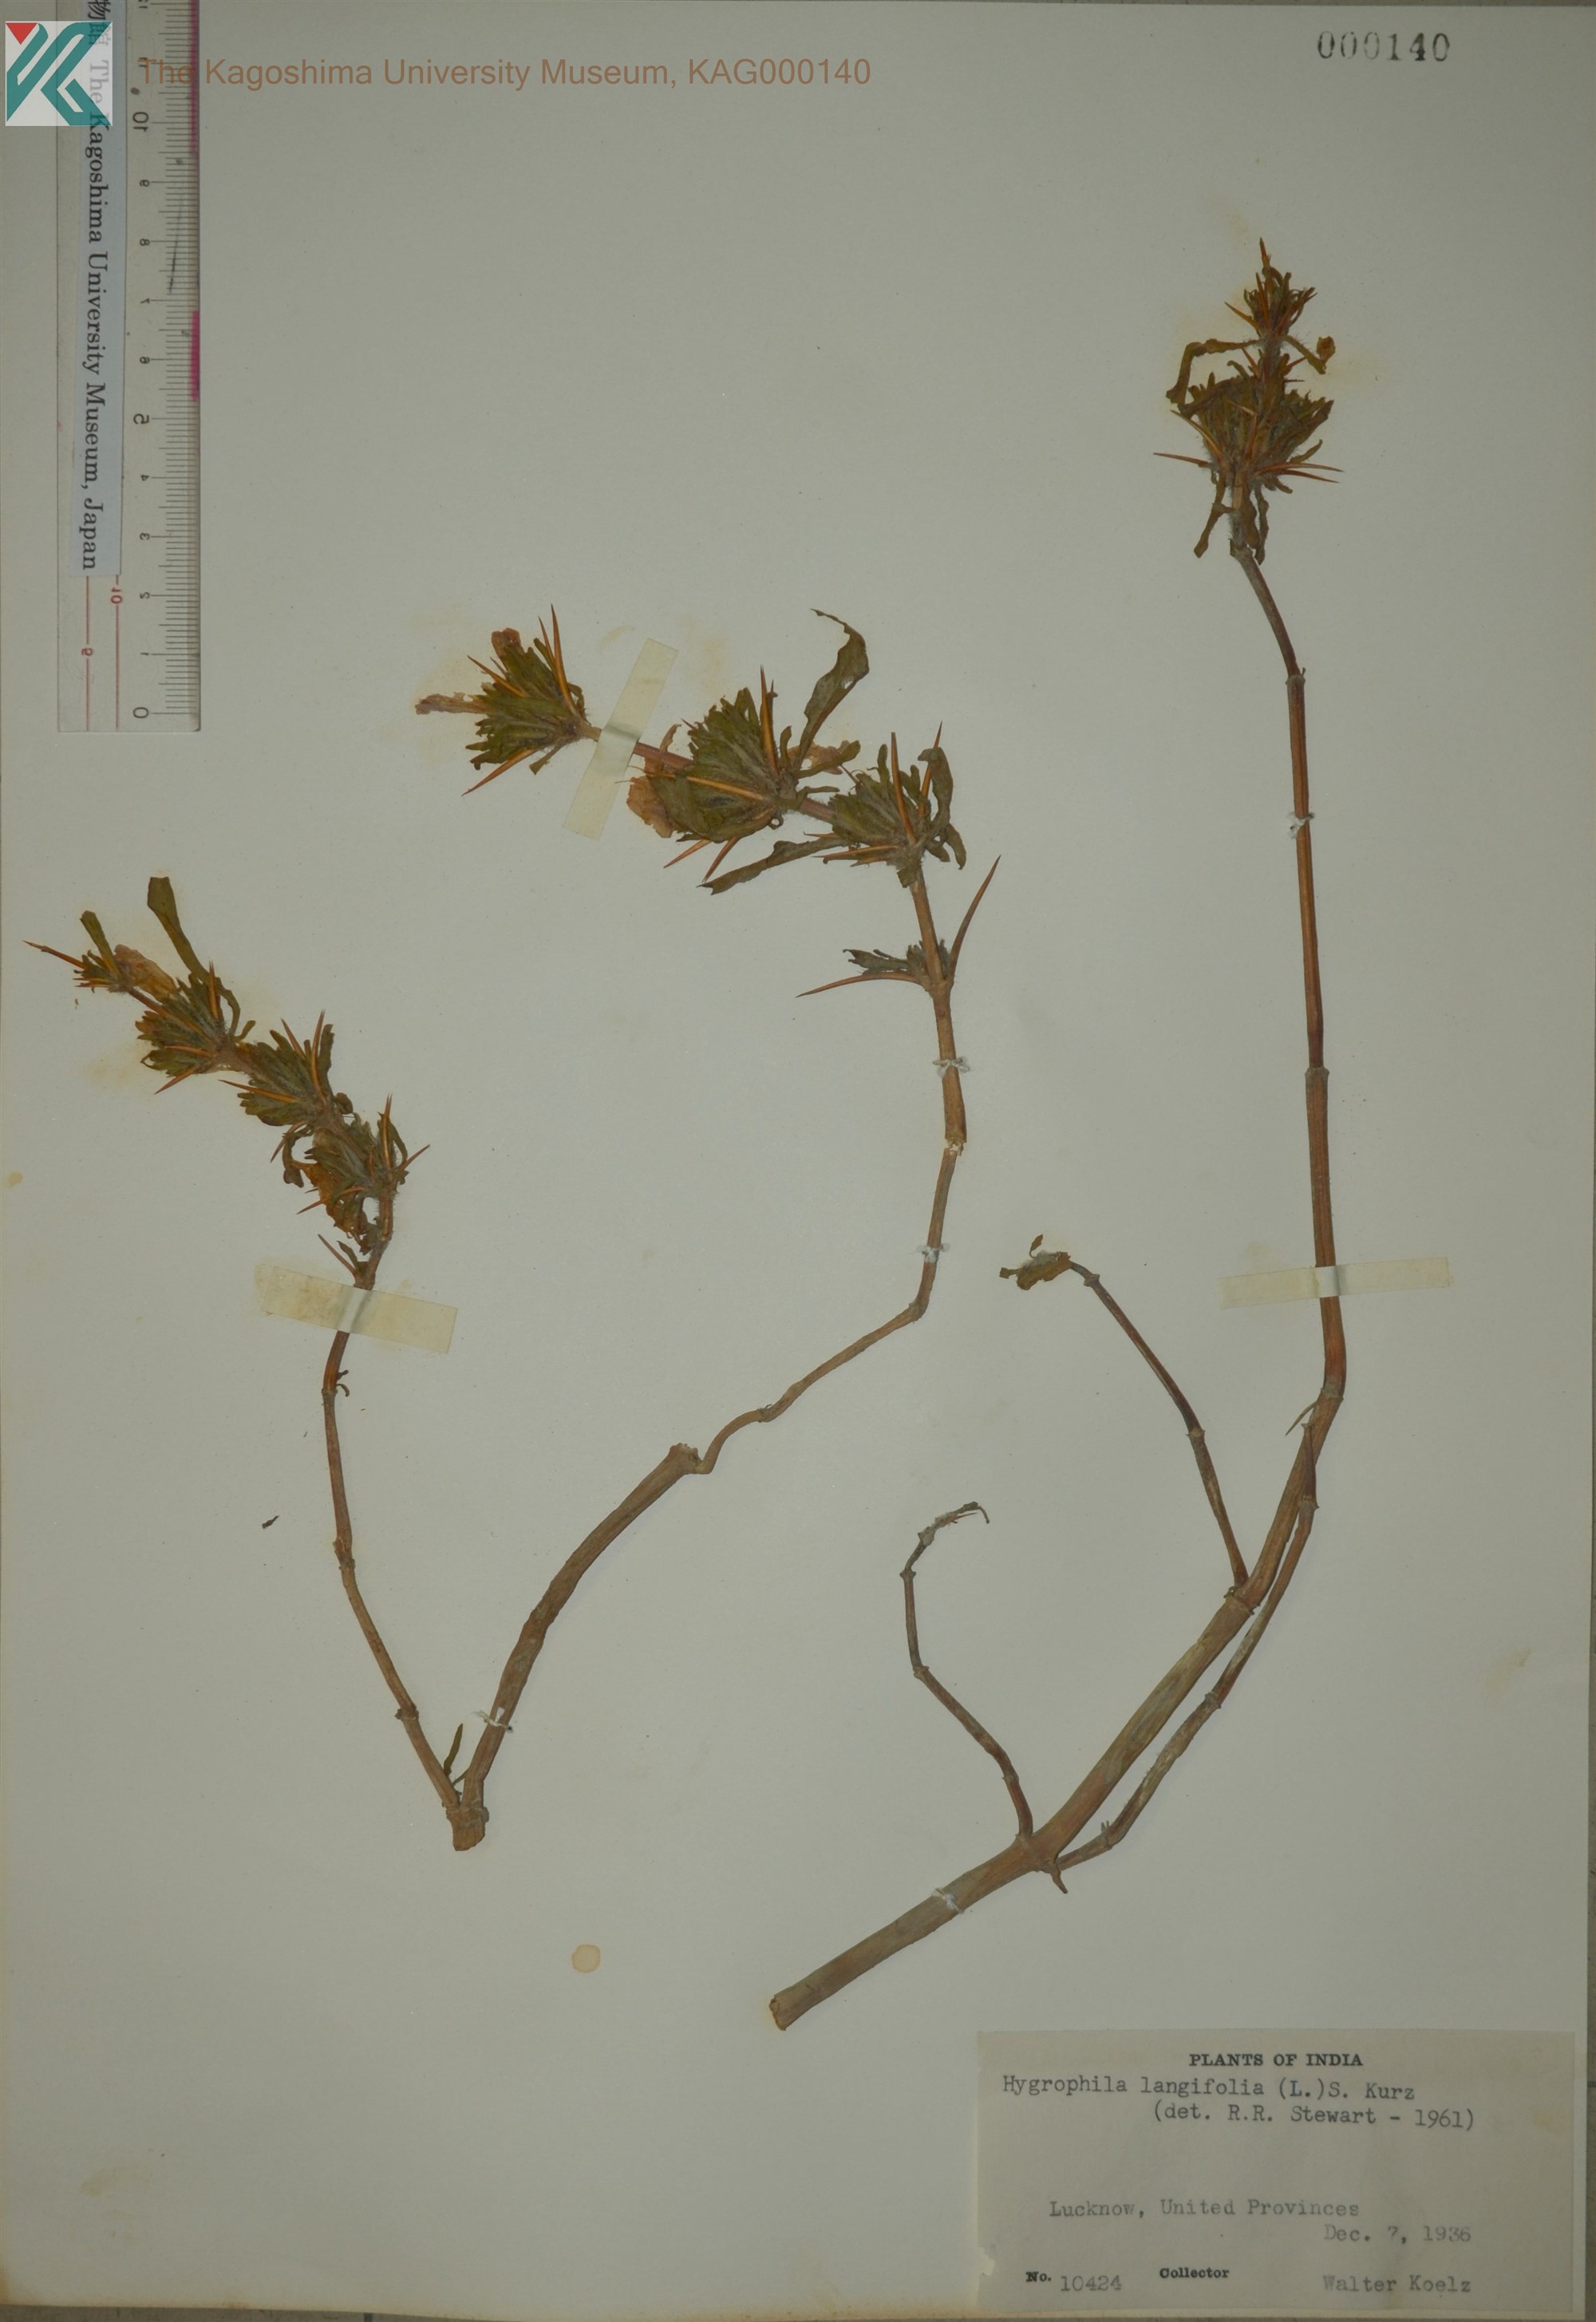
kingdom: Plantae
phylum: Tracheophyta
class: Magnoliopsida
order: Lamiales
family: Acanthaceae
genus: Hygrophila
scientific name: Hygrophila auriculata
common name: Hygrophila
